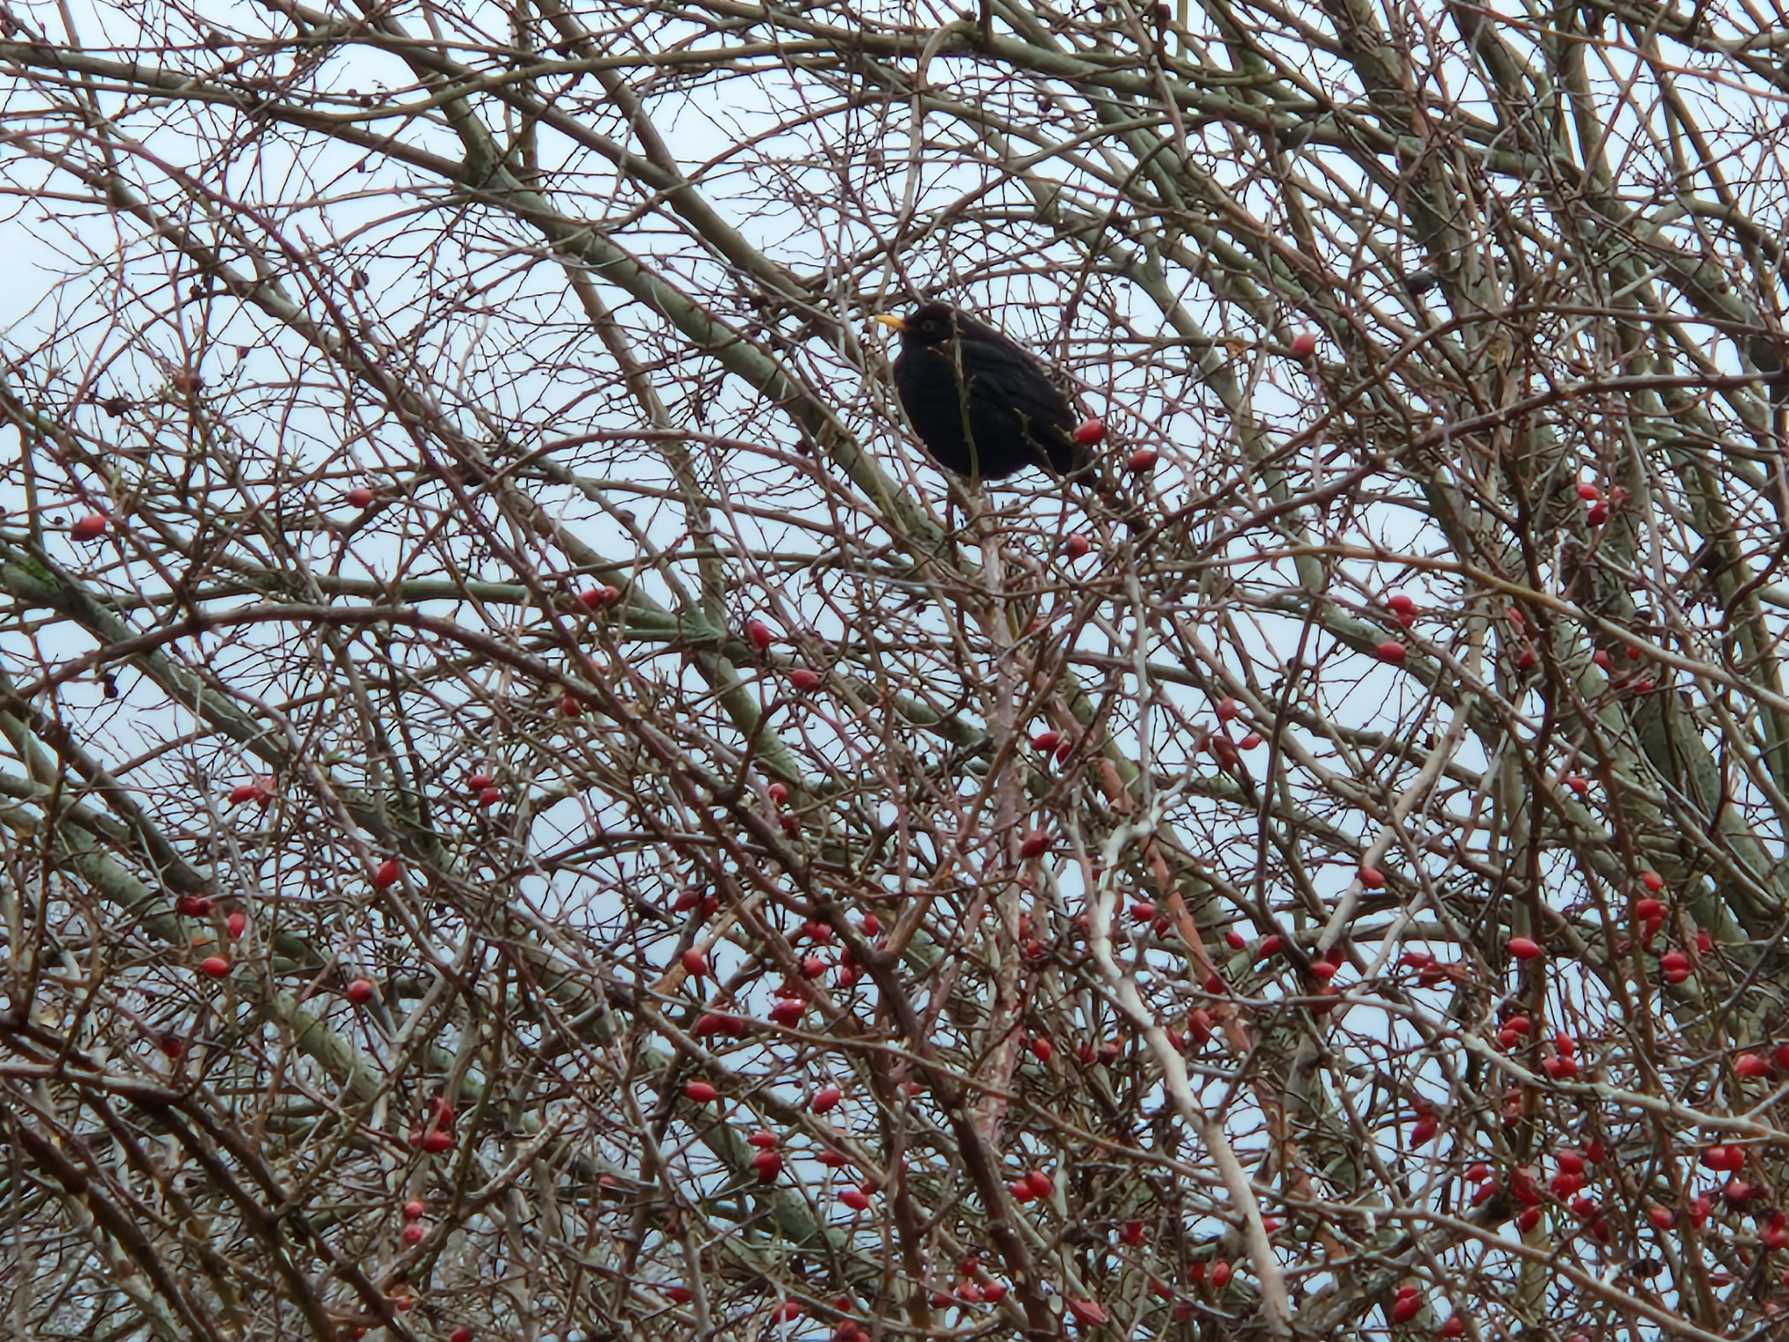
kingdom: Animalia
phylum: Chordata
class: Aves
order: Passeriformes
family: Turdidae
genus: Turdus
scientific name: Turdus merula
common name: Solsort
